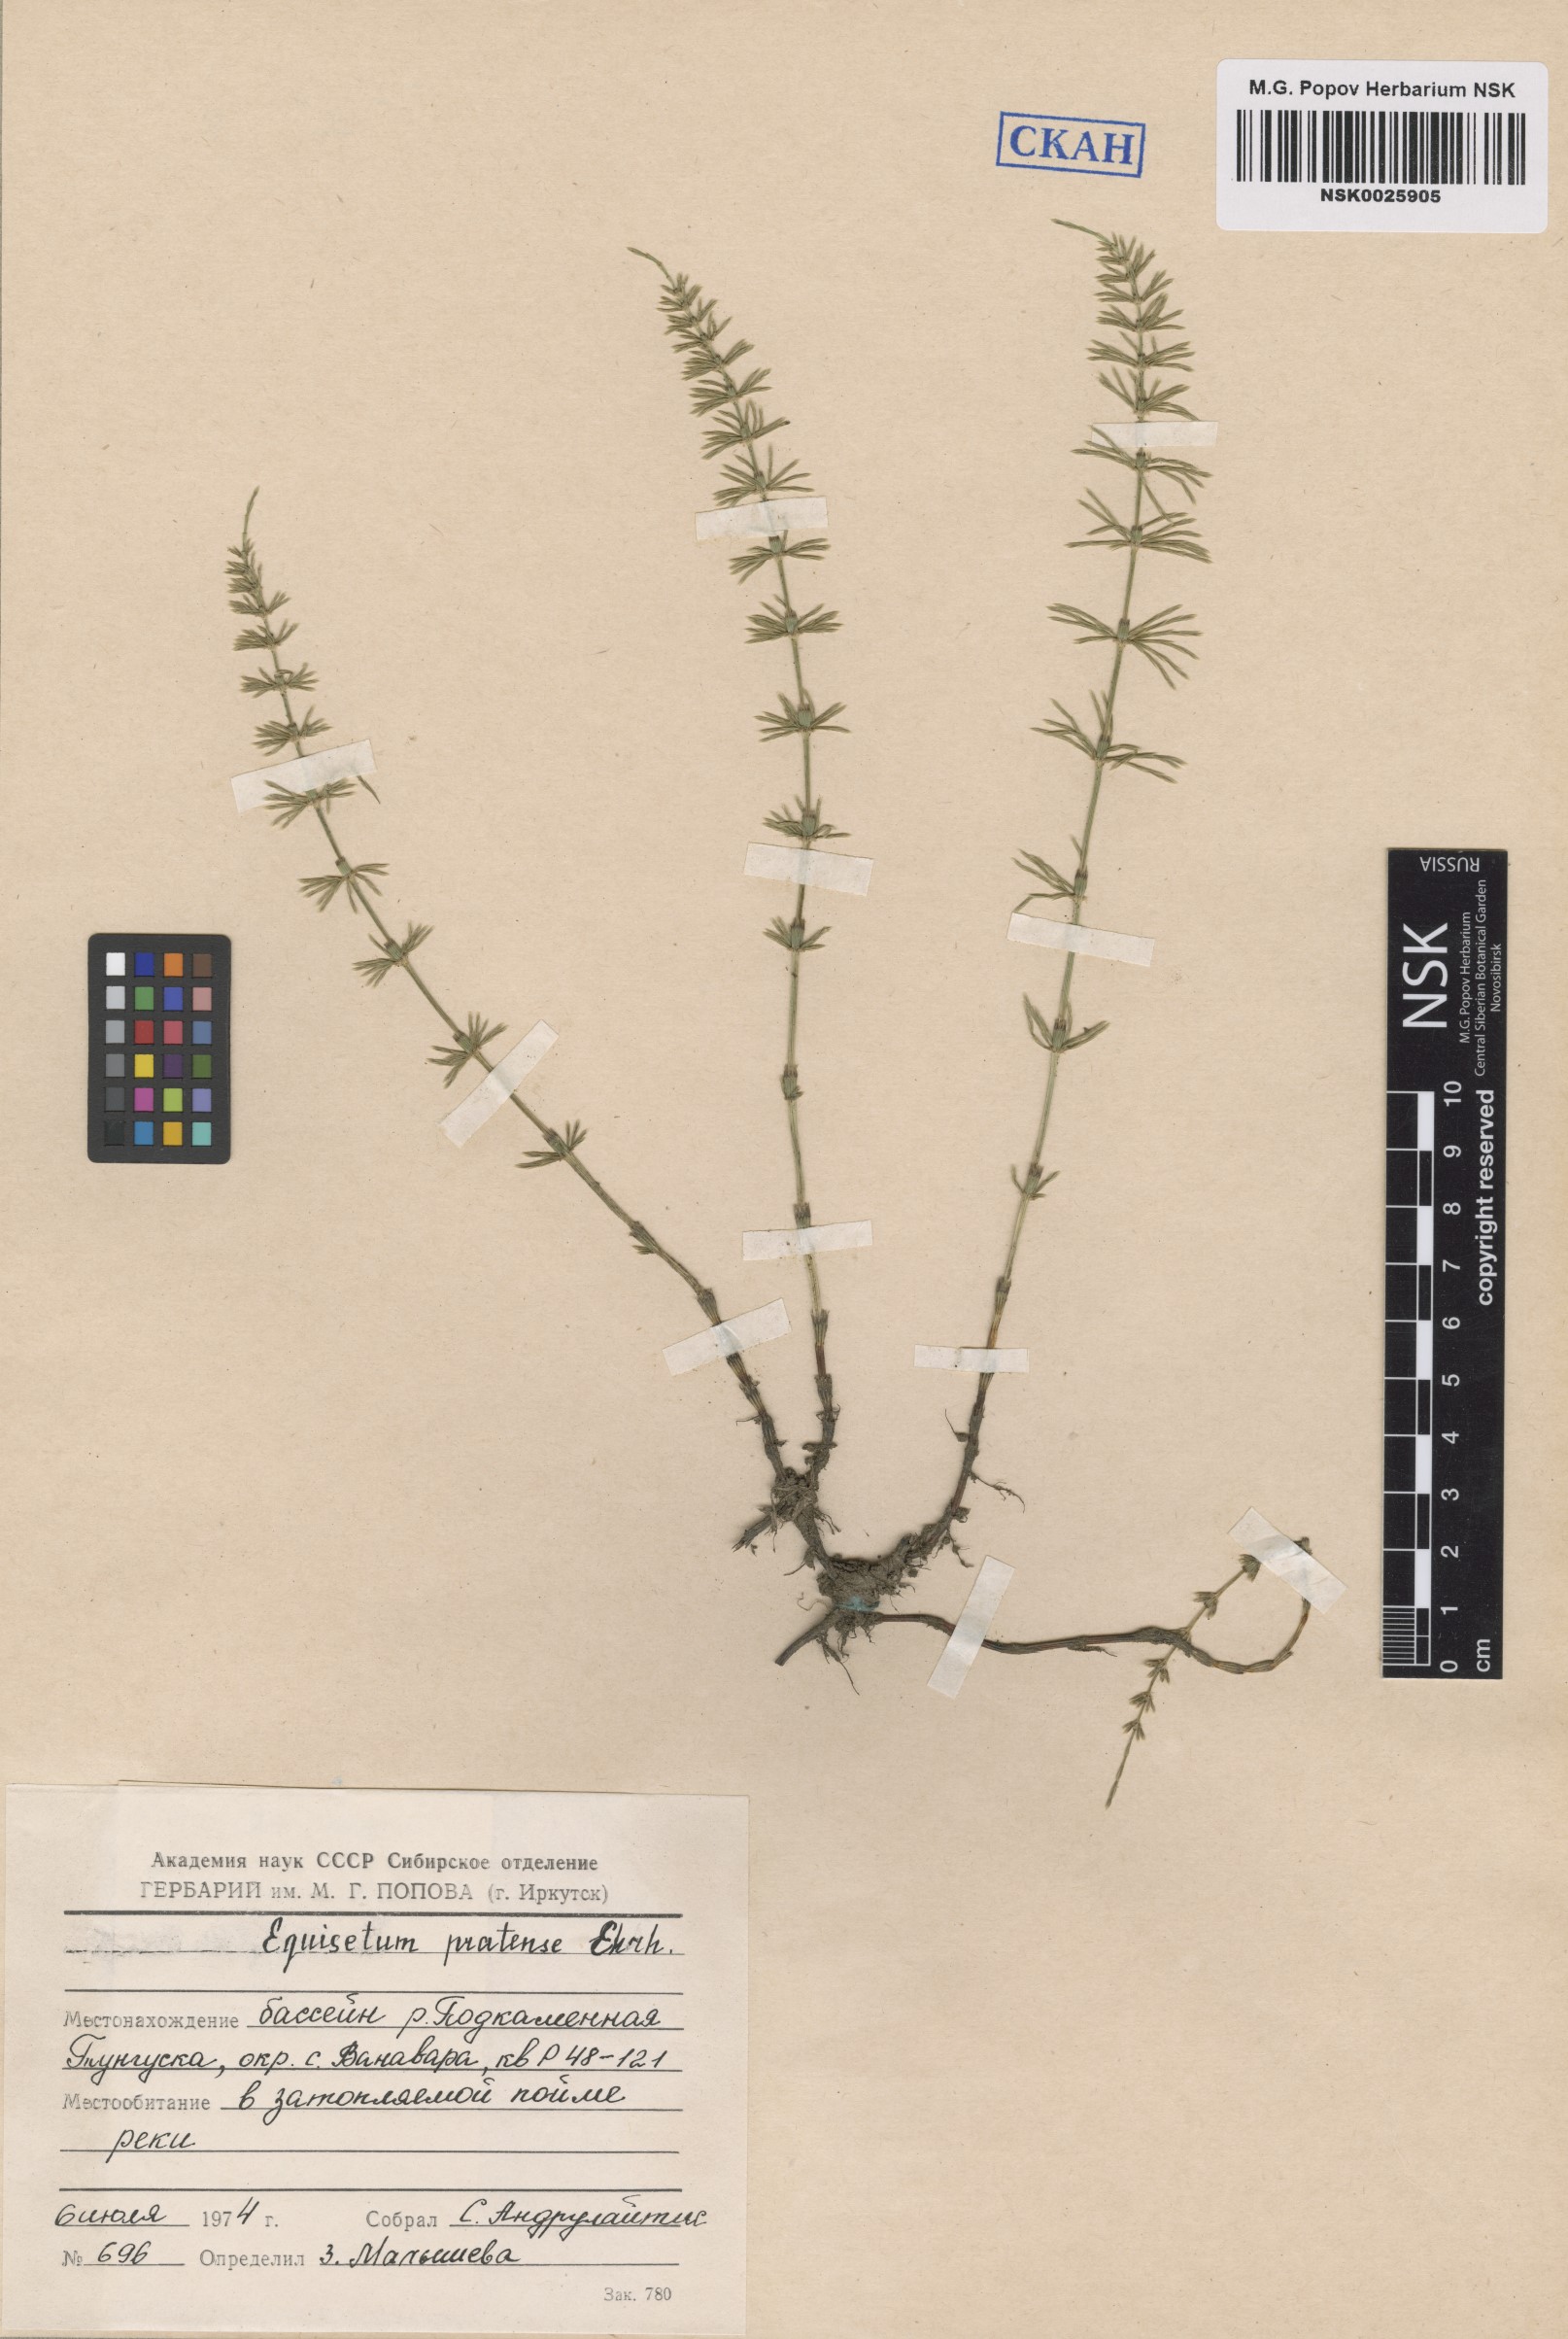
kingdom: Plantae
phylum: Tracheophyta
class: Polypodiopsida
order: Equisetales
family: Equisetaceae
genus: Equisetum
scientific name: Equisetum pratense
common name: Meadow horsetail
